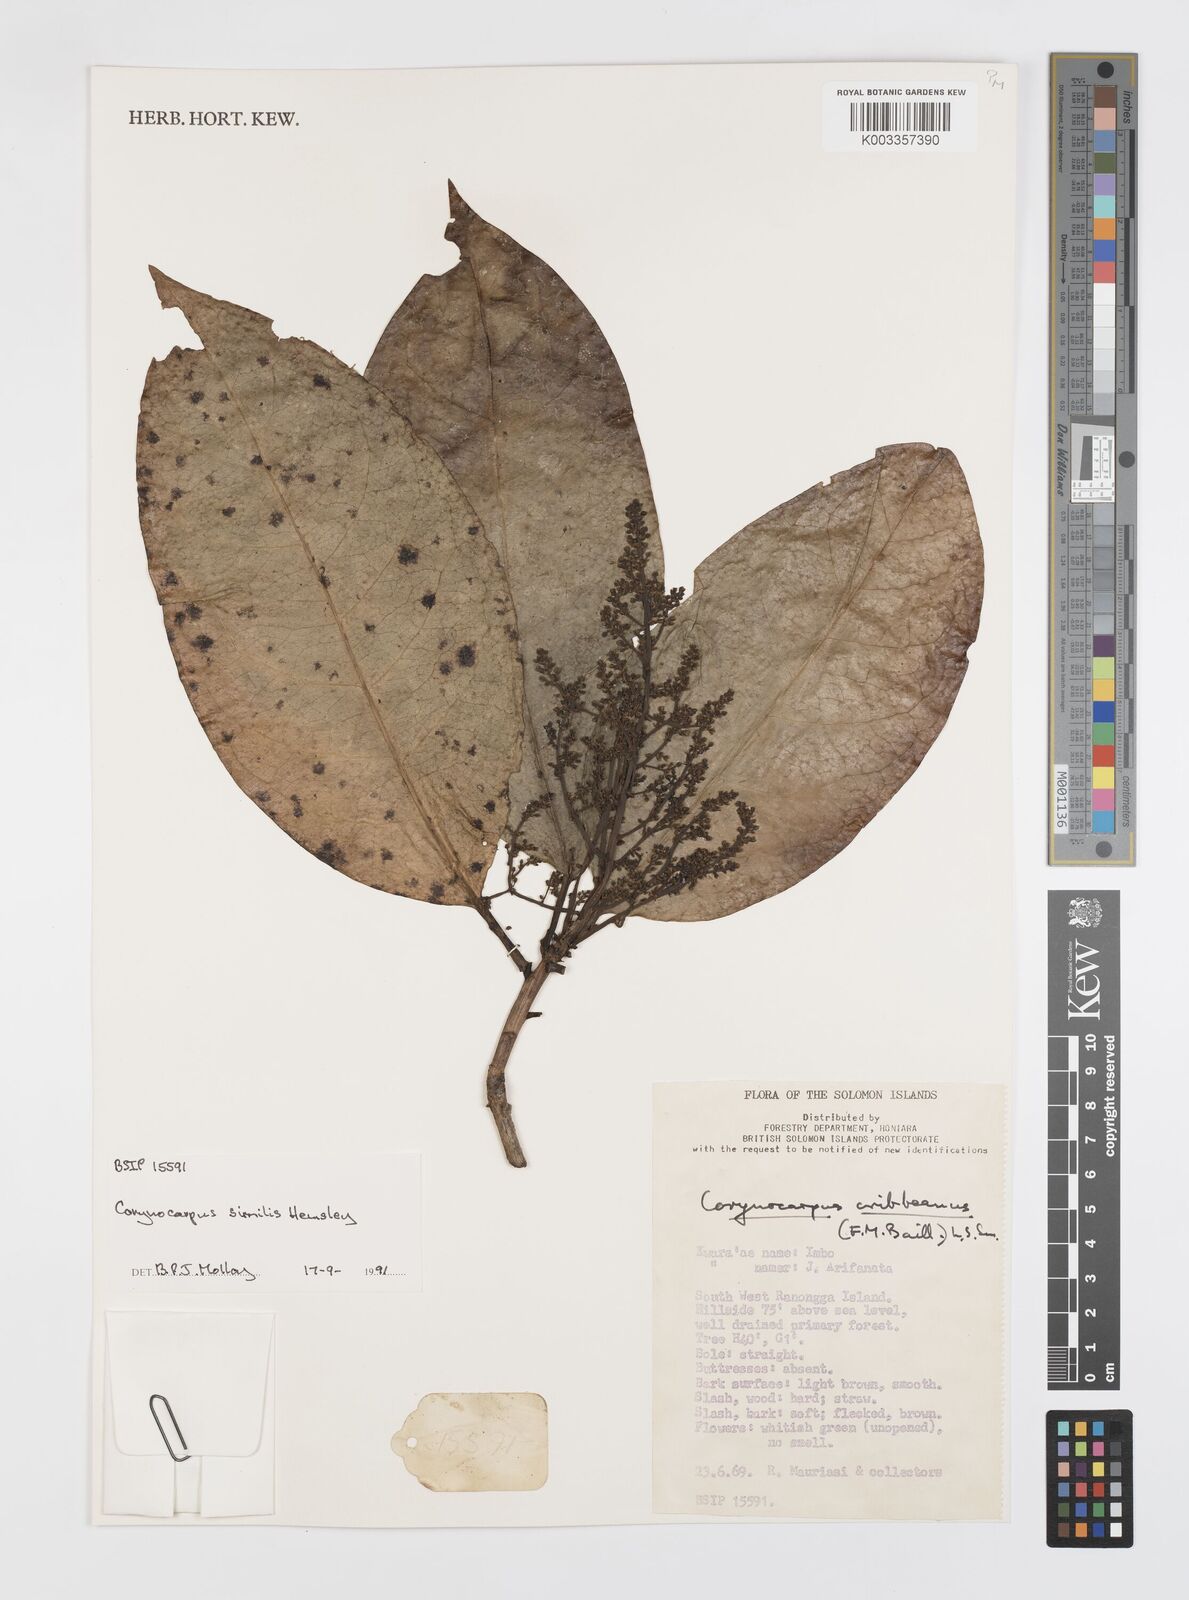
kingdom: Plantae
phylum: Tracheophyta
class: Magnoliopsida
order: Cucurbitales
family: Corynocarpaceae
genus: Corynocarpus
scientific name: Corynocarpus similis
